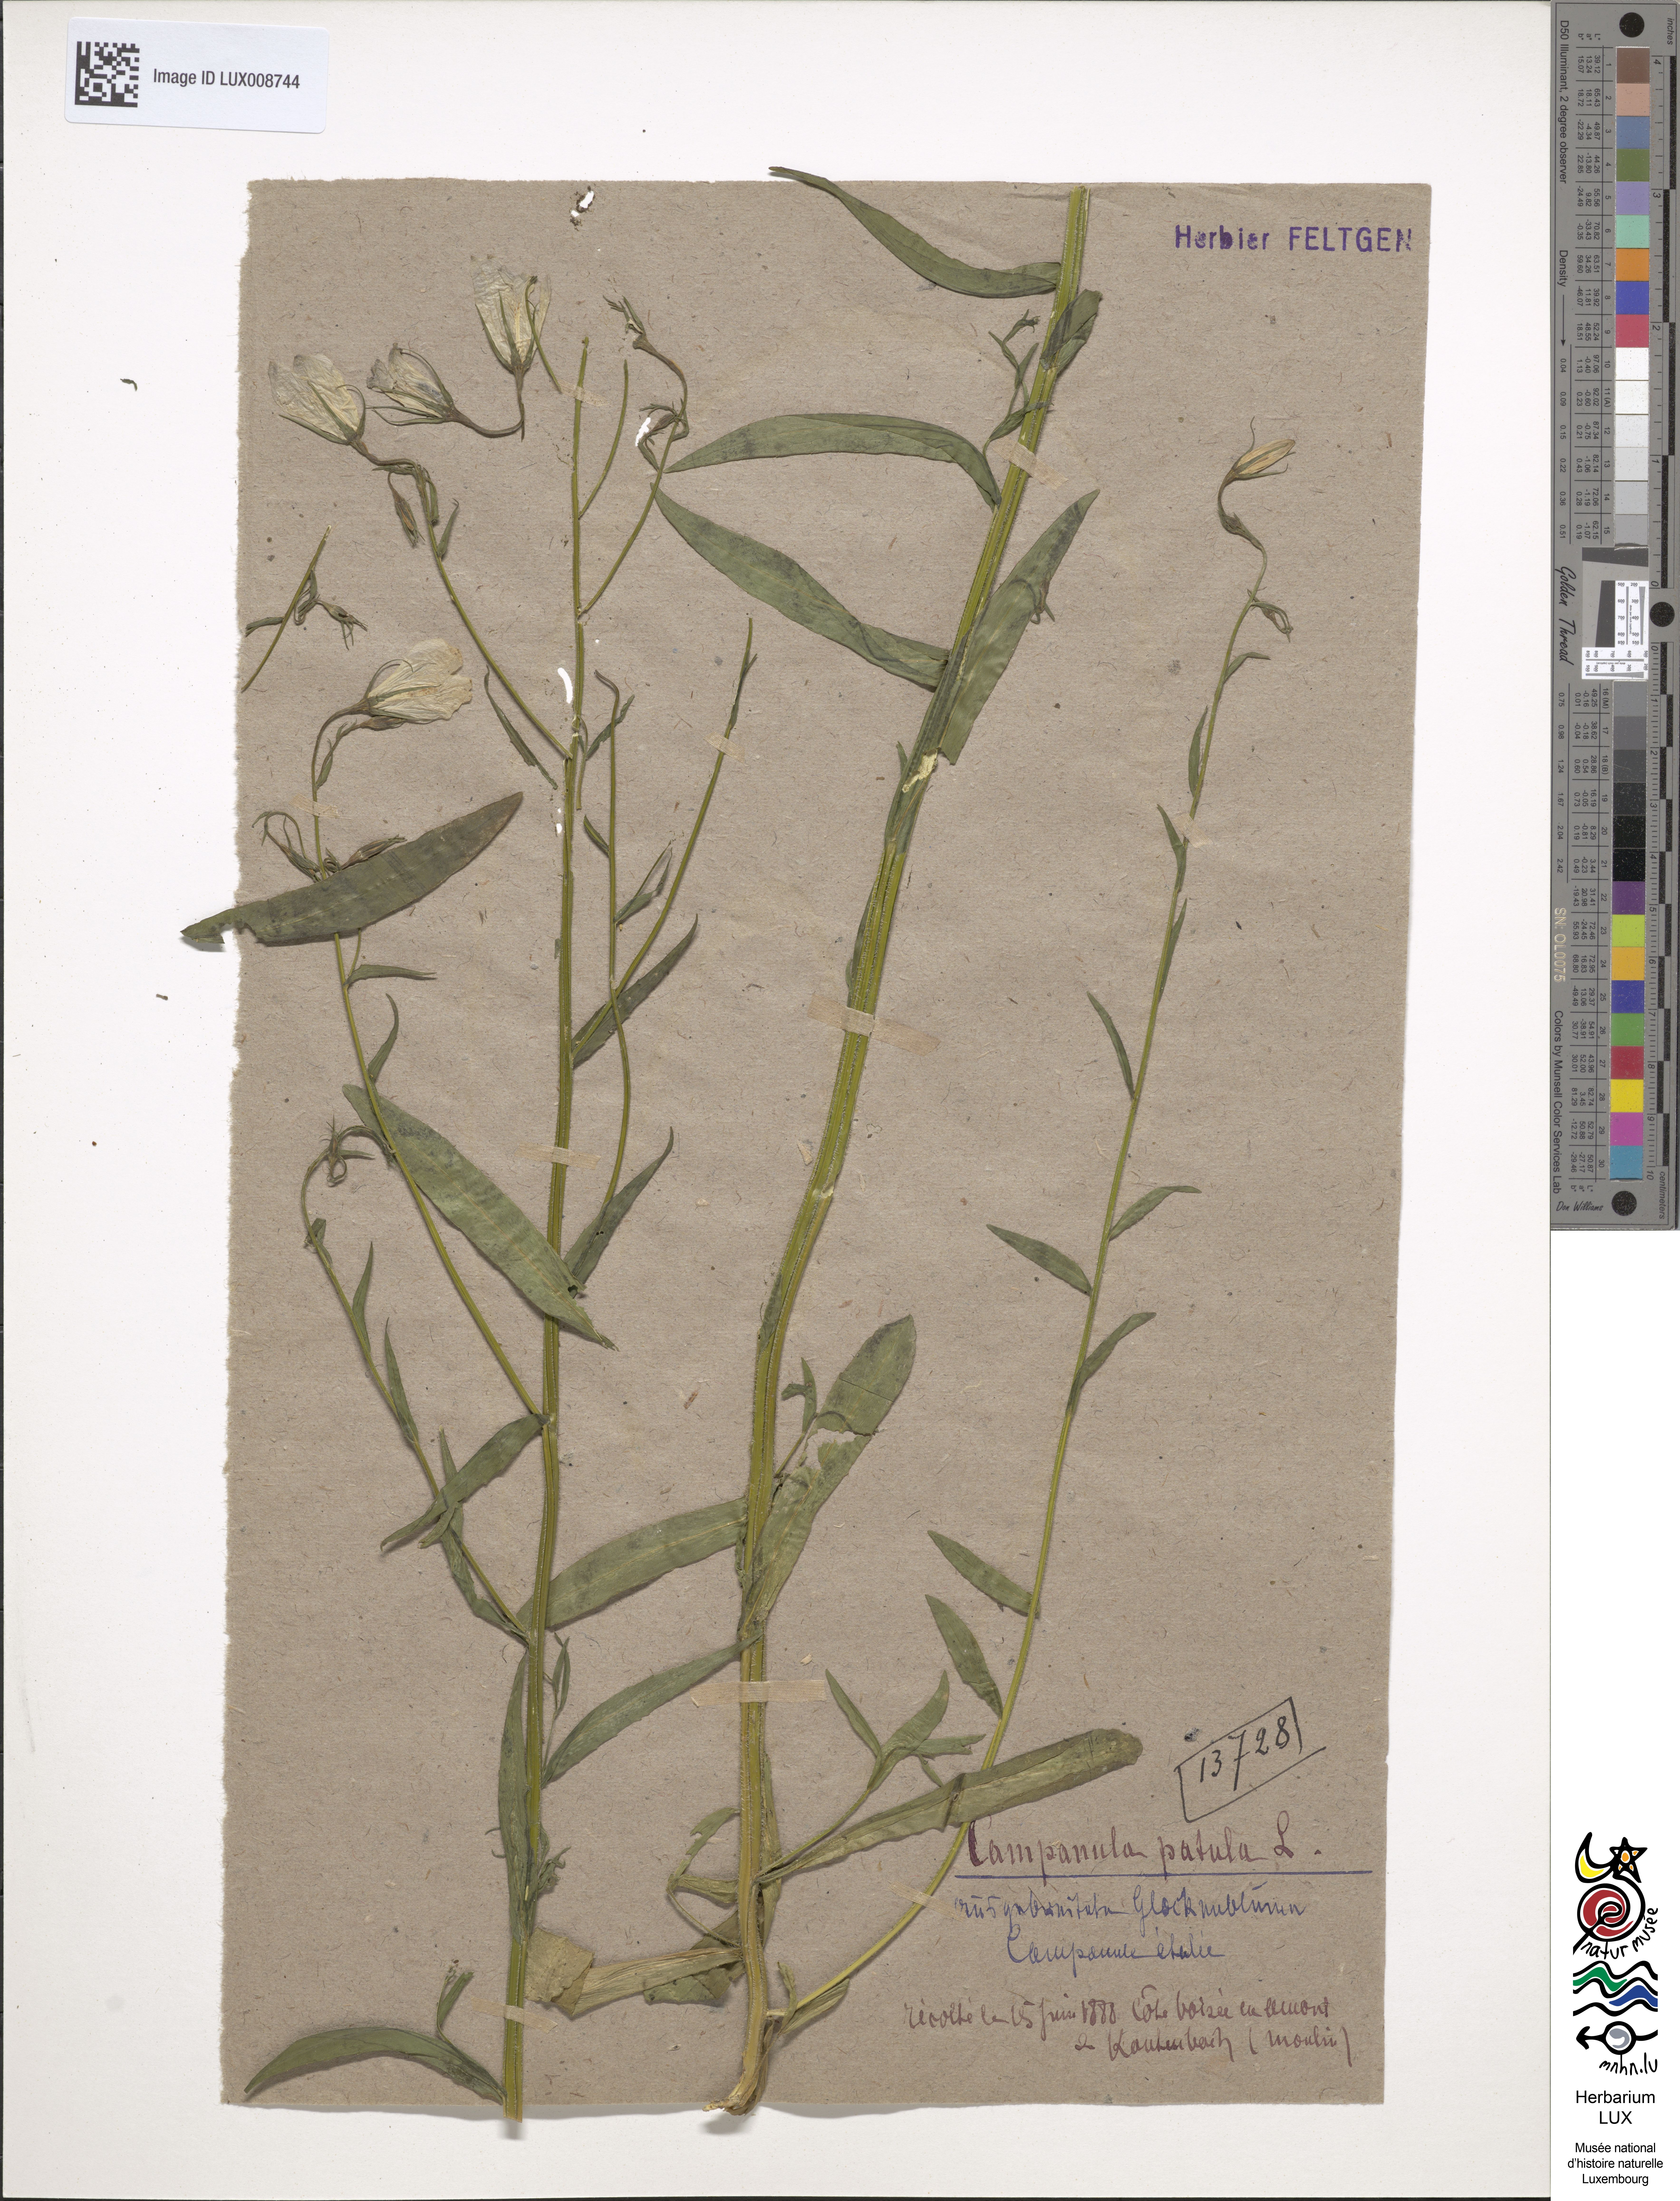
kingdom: Plantae
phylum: Tracheophyta
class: Magnoliopsida
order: Asterales
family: Campanulaceae
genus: Campanula
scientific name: Campanula patula
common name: Spreading bellflower
